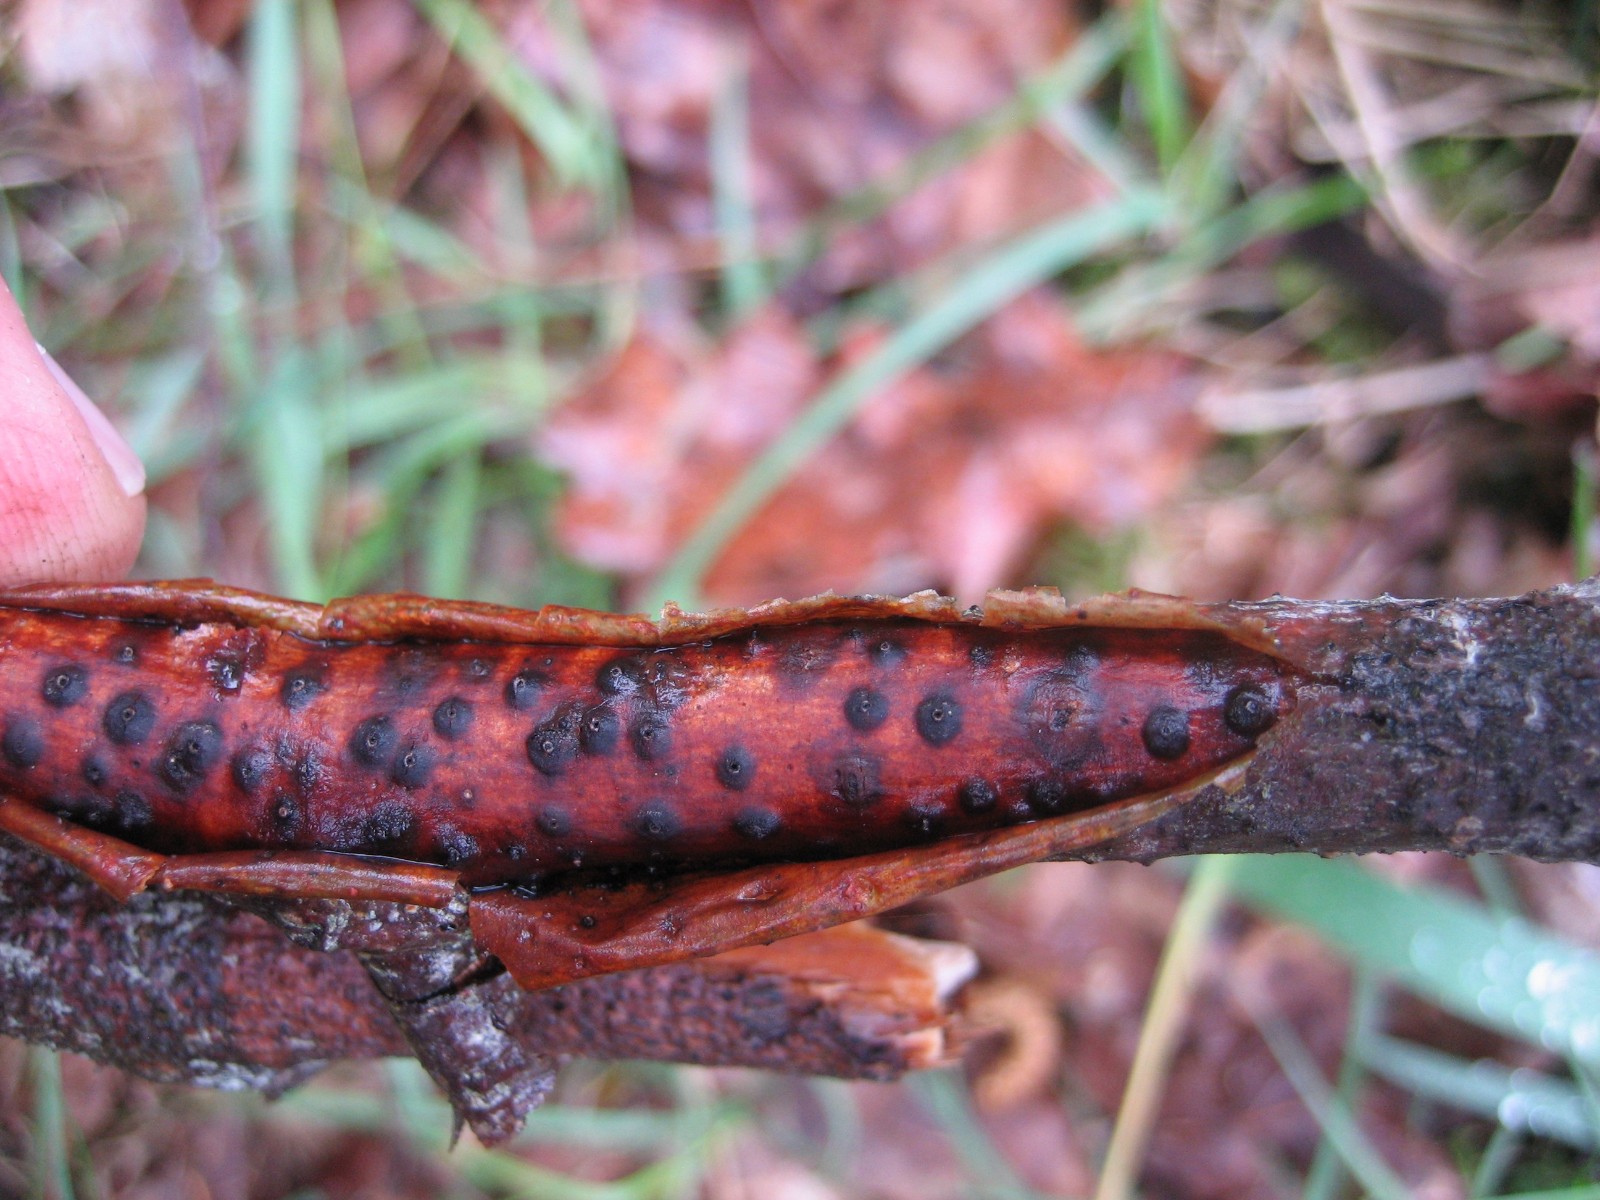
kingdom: Fungi
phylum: Ascomycota
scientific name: Ascomycota
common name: sæksvampe
